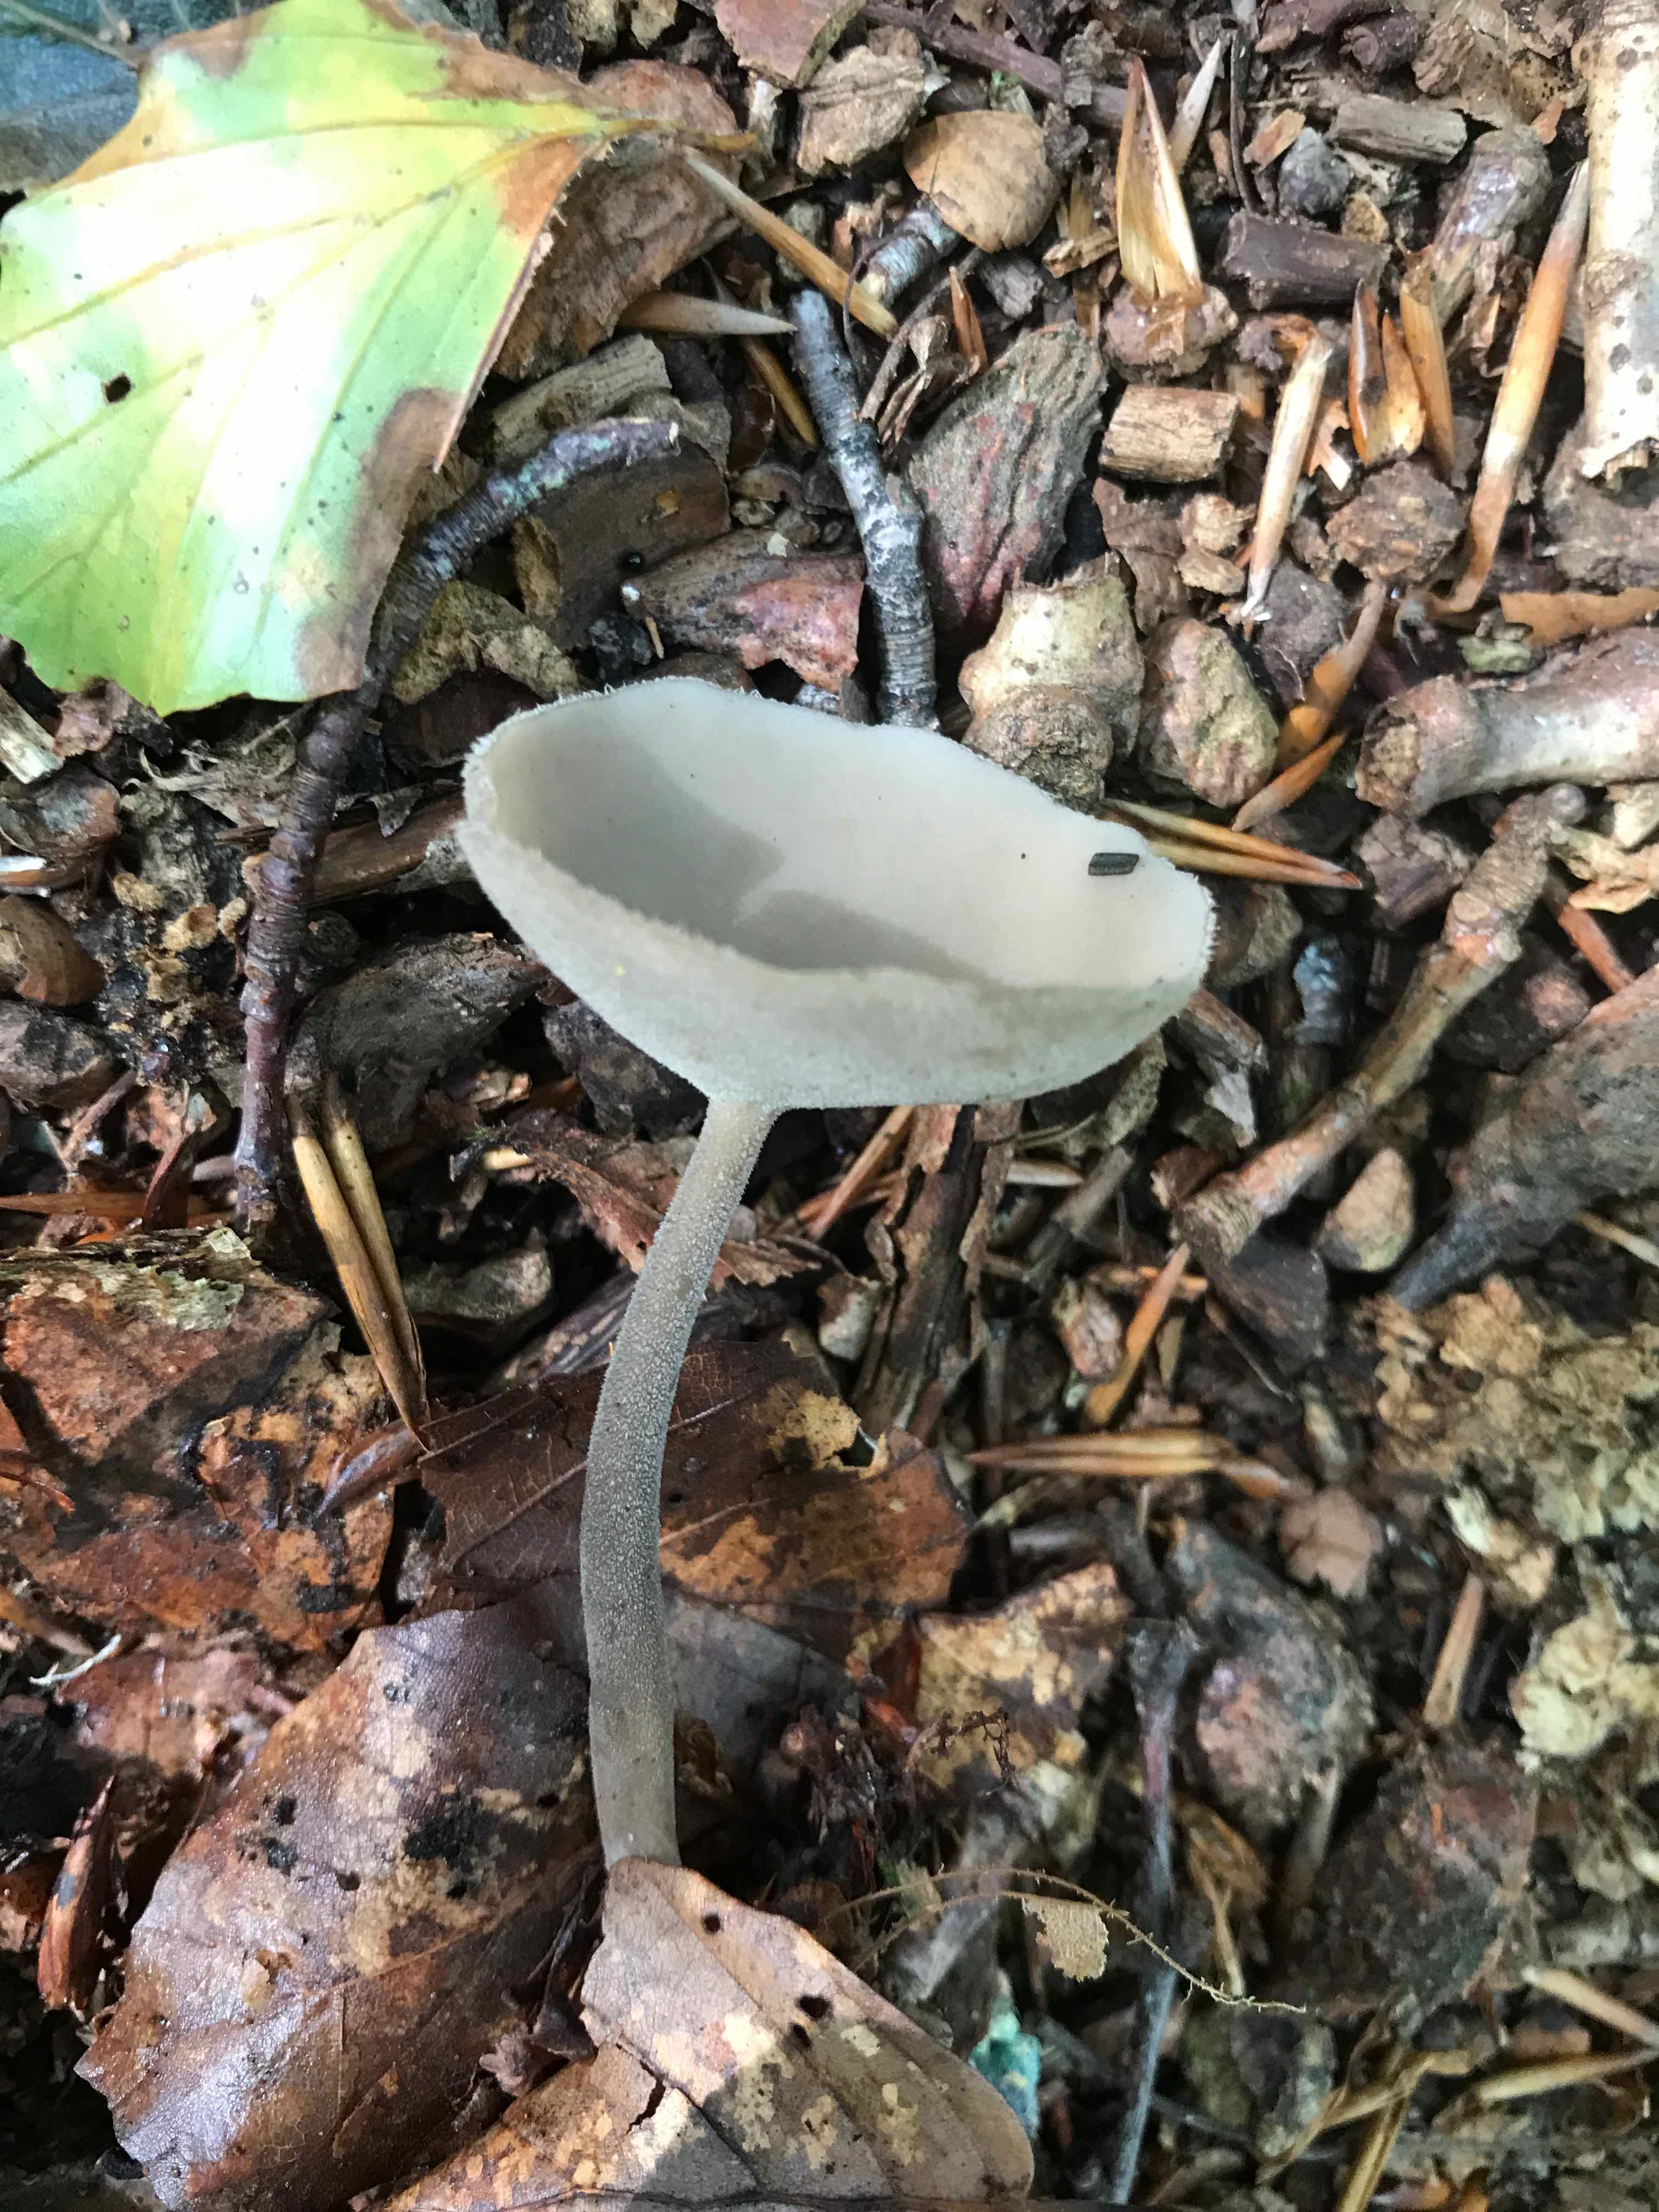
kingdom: Fungi
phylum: Ascomycota
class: Pezizomycetes
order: Pezizales
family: Helvellaceae
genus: Helvella
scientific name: Helvella macropus
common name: højstokket foldhat
